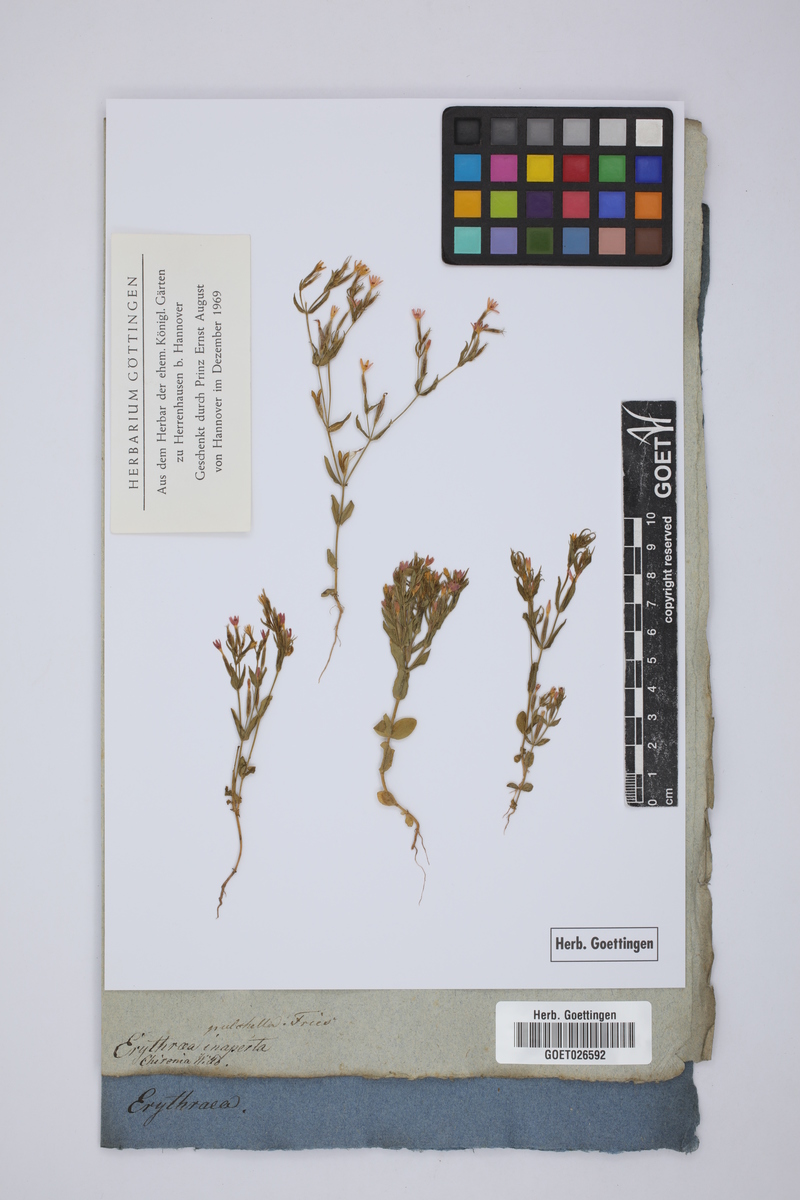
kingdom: Plantae
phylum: Tracheophyta
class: Magnoliopsida
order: Gentianales
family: Gentianaceae
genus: Centaurium
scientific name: Centaurium pulchellum
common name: Lesser centaury
